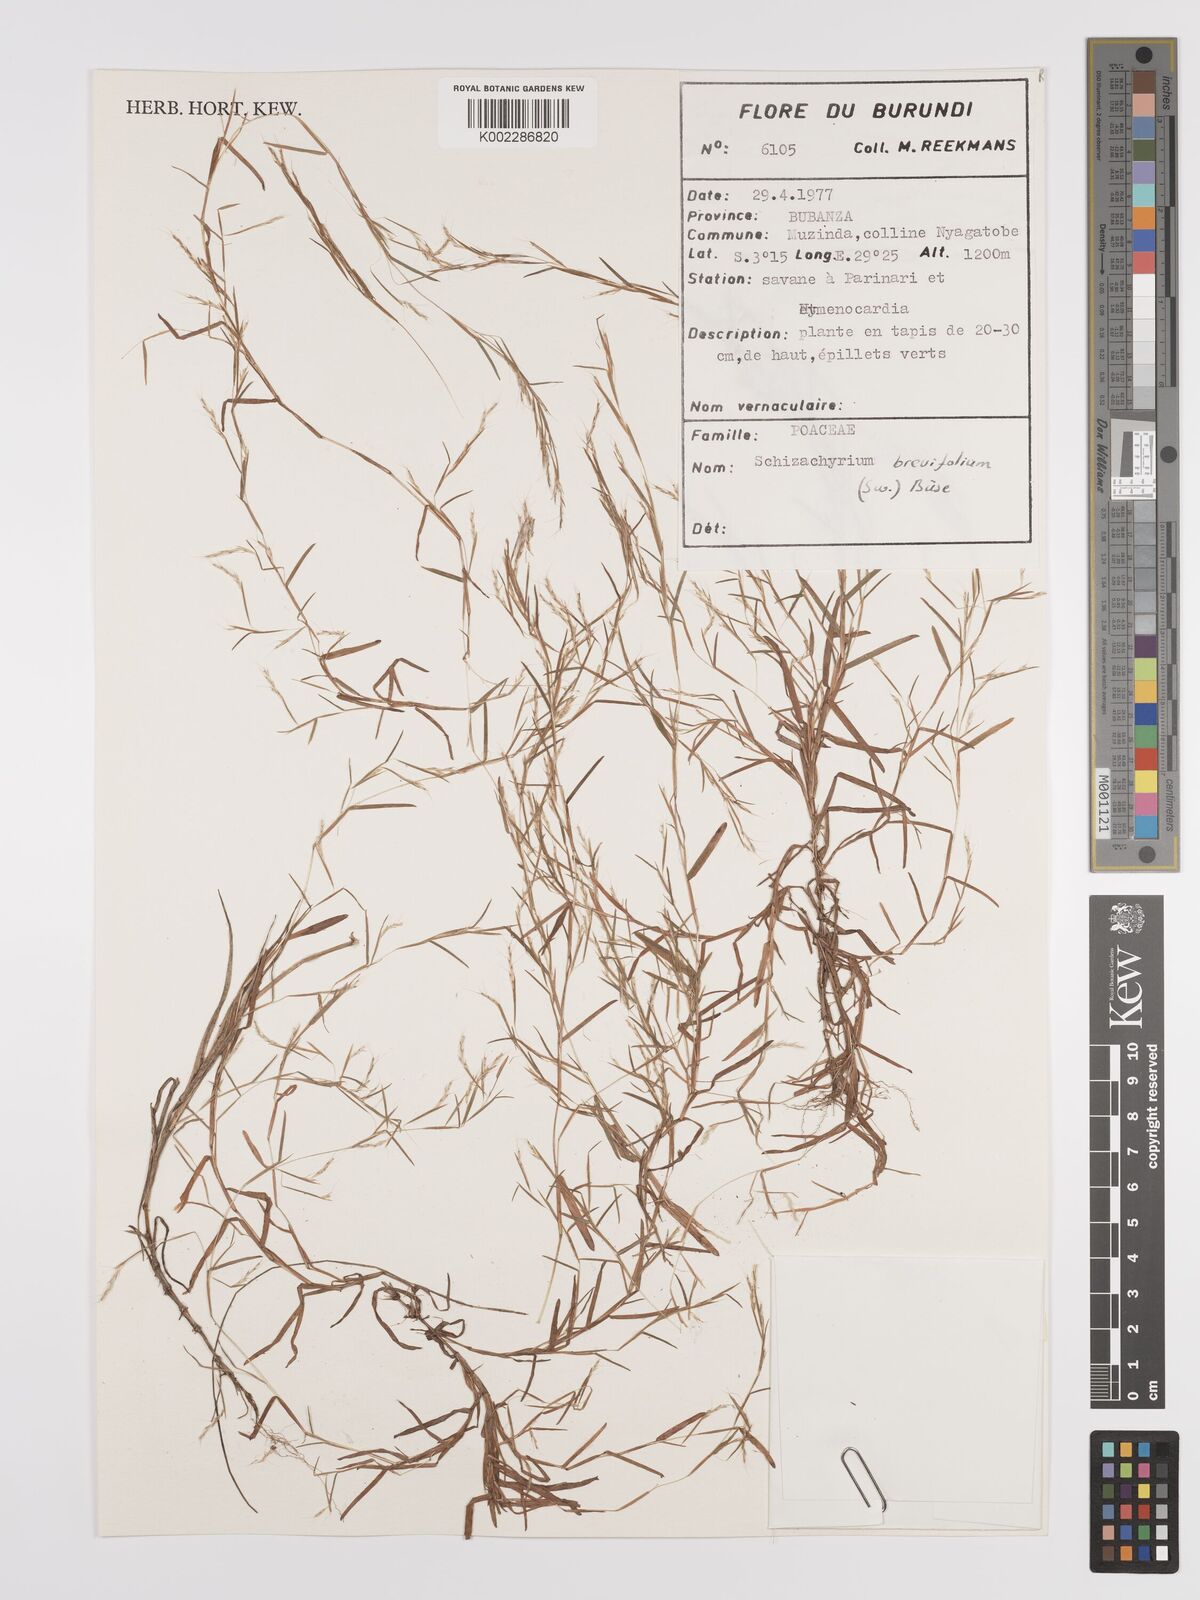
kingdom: Plantae
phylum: Tracheophyta
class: Liliopsida
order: Poales
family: Poaceae
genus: Schizachyrium
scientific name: Schizachyrium brevifolium
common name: Serillo dulce
